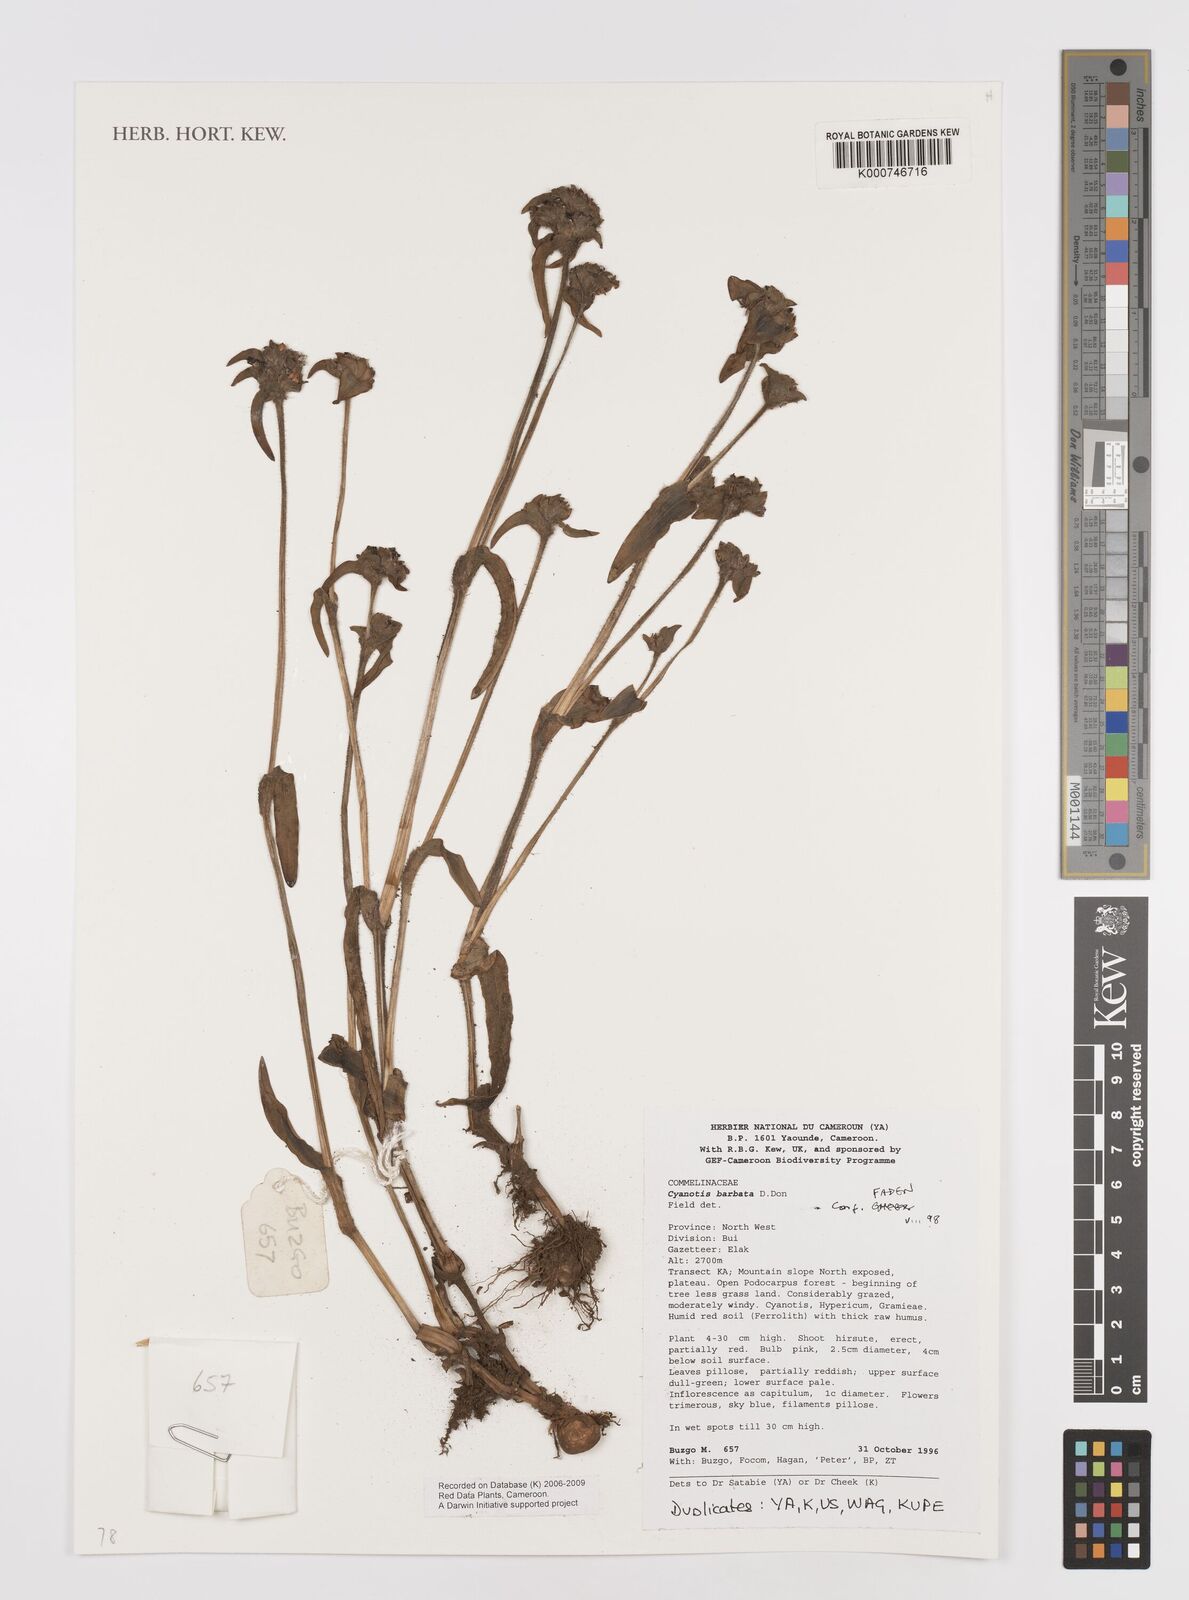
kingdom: Plantae
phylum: Tracheophyta
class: Liliopsida
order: Commelinales
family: Commelinaceae
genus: Cyanotis
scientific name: Cyanotis vaga
